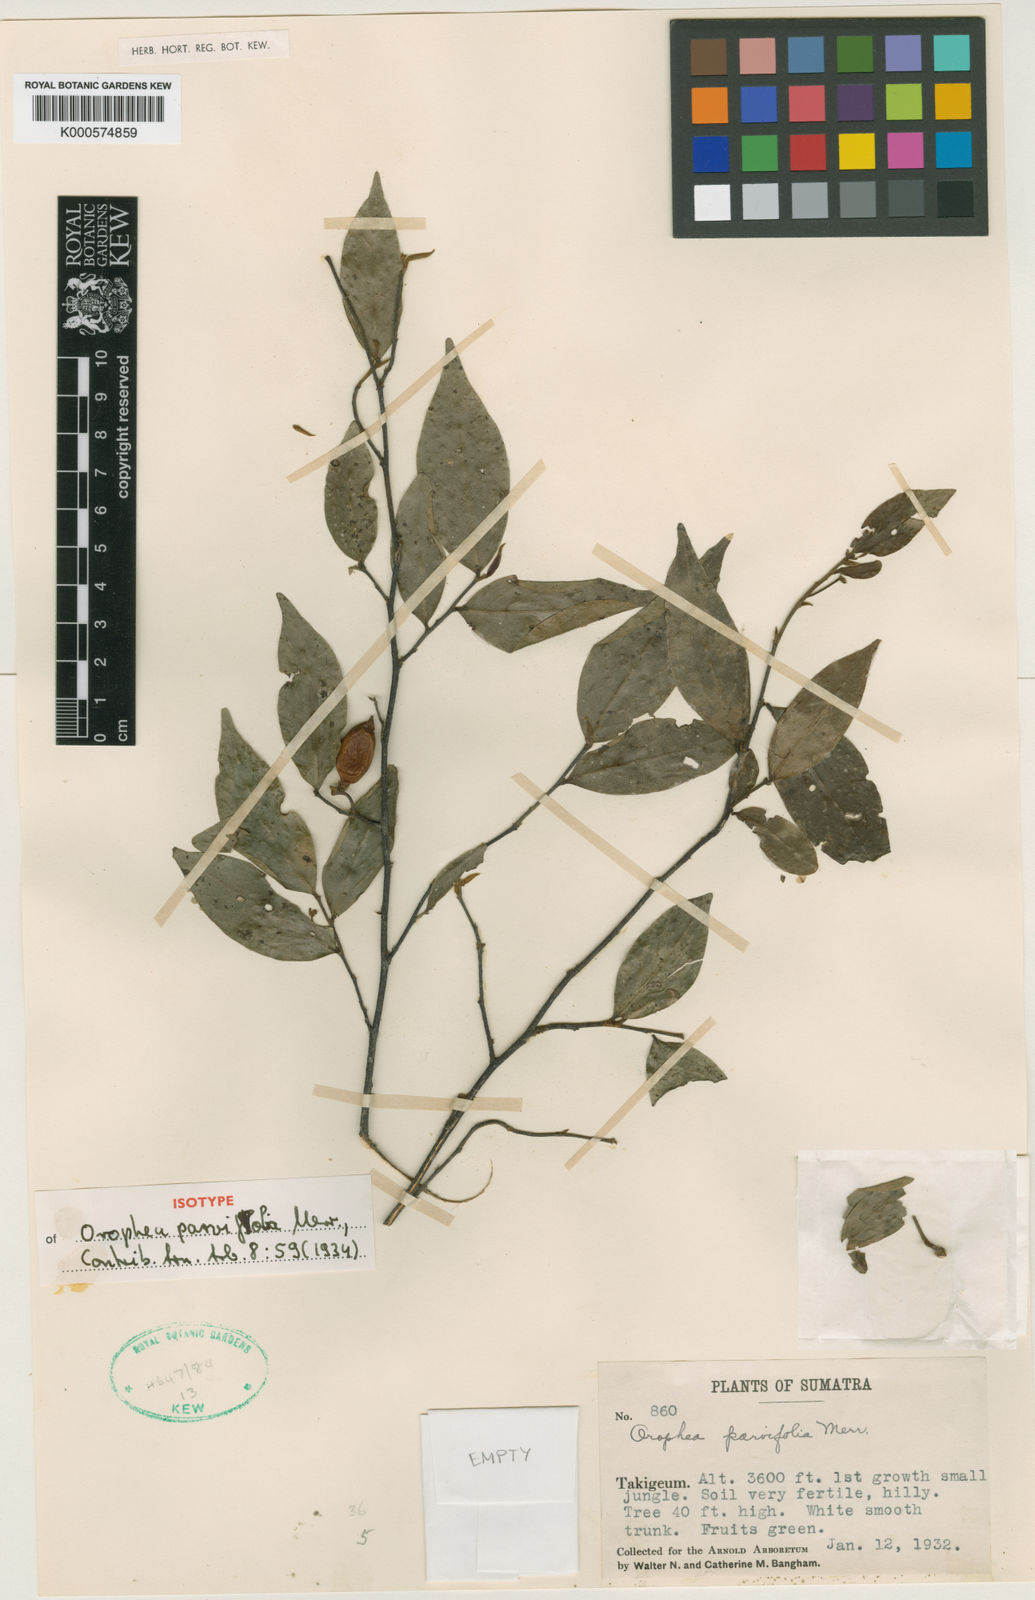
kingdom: Plantae
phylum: Tracheophyta
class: Magnoliopsida
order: Magnoliales
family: Annonaceae
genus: Orophea
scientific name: Orophea parvifolia
